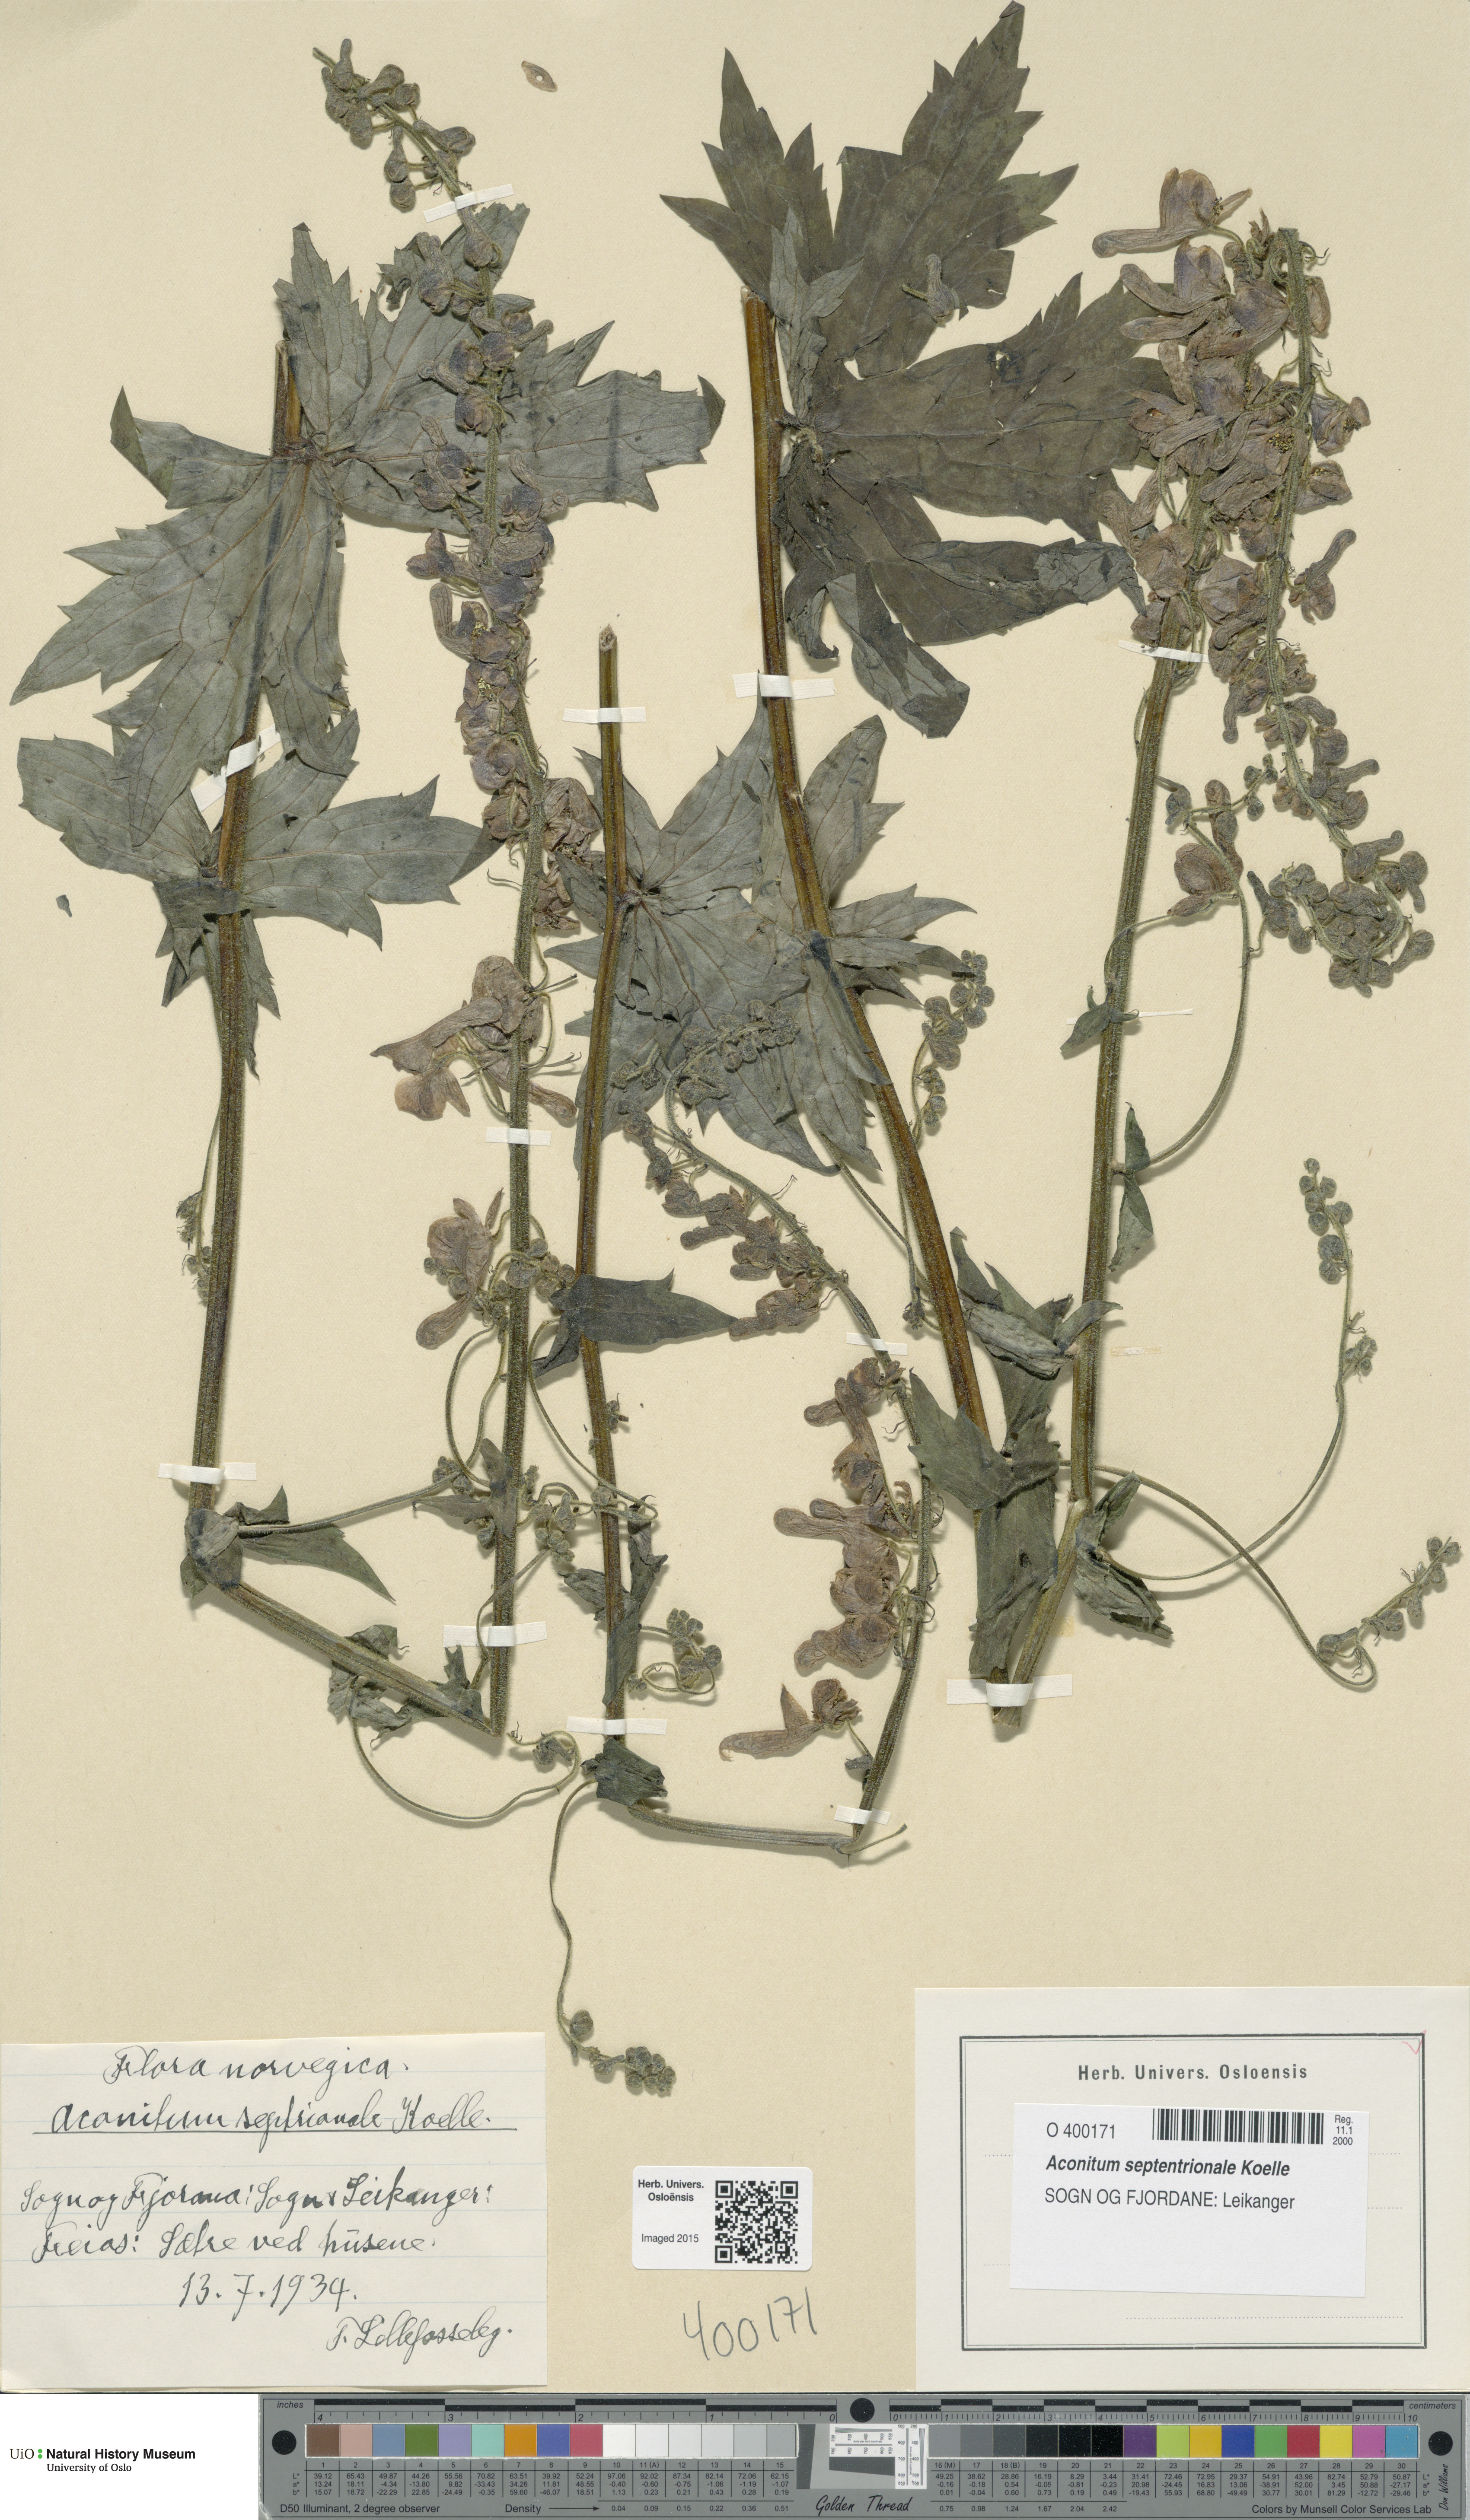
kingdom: Plantae
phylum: Tracheophyta
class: Magnoliopsida
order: Ranunculales
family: Ranunculaceae
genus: Aconitum
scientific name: Aconitum septentrionale
